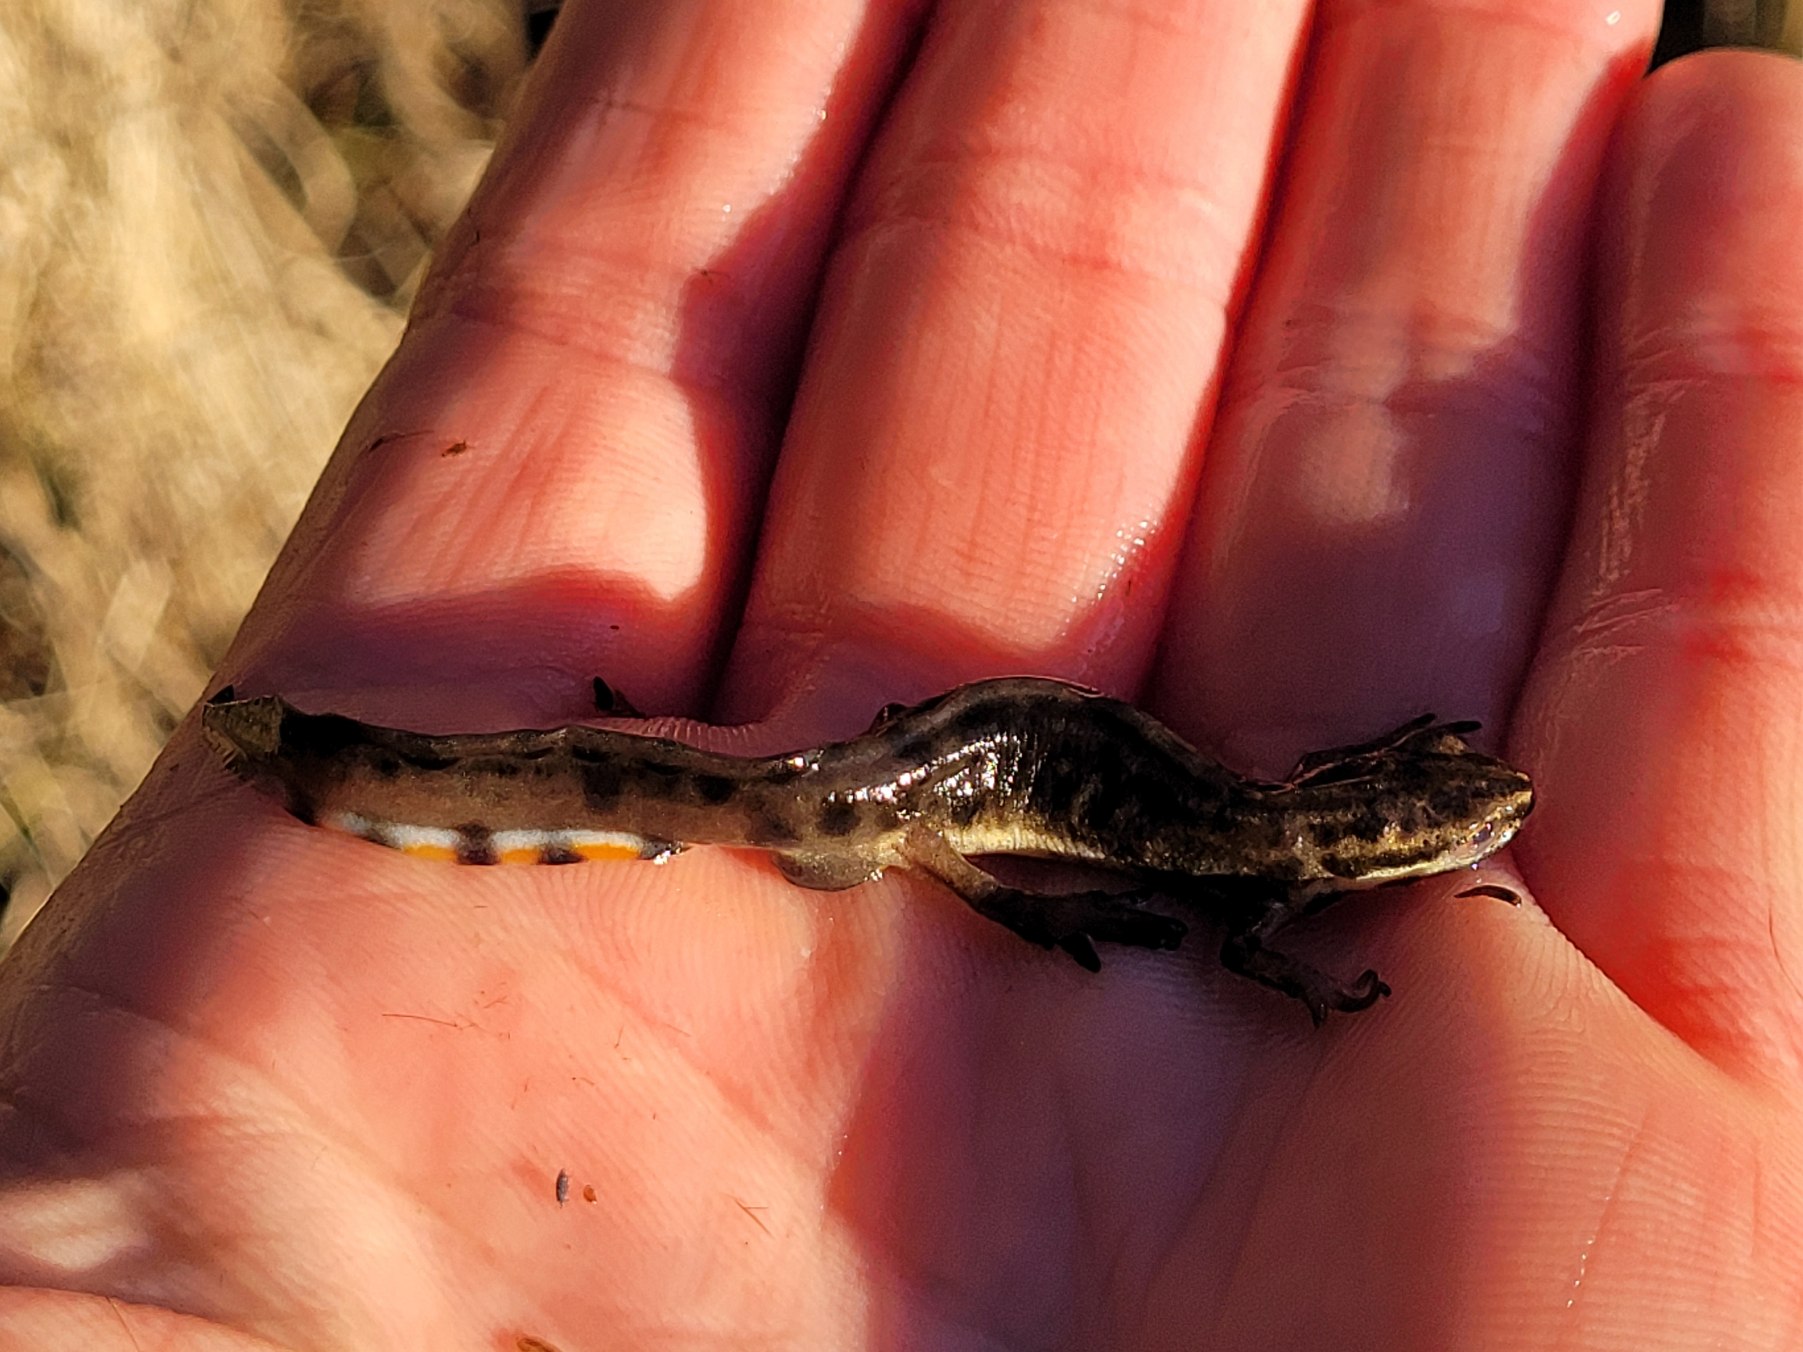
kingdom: Animalia
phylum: Chordata
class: Amphibia
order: Caudata
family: Salamandridae
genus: Lissotriton
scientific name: Lissotriton vulgaris
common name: Lille vandsalamander
